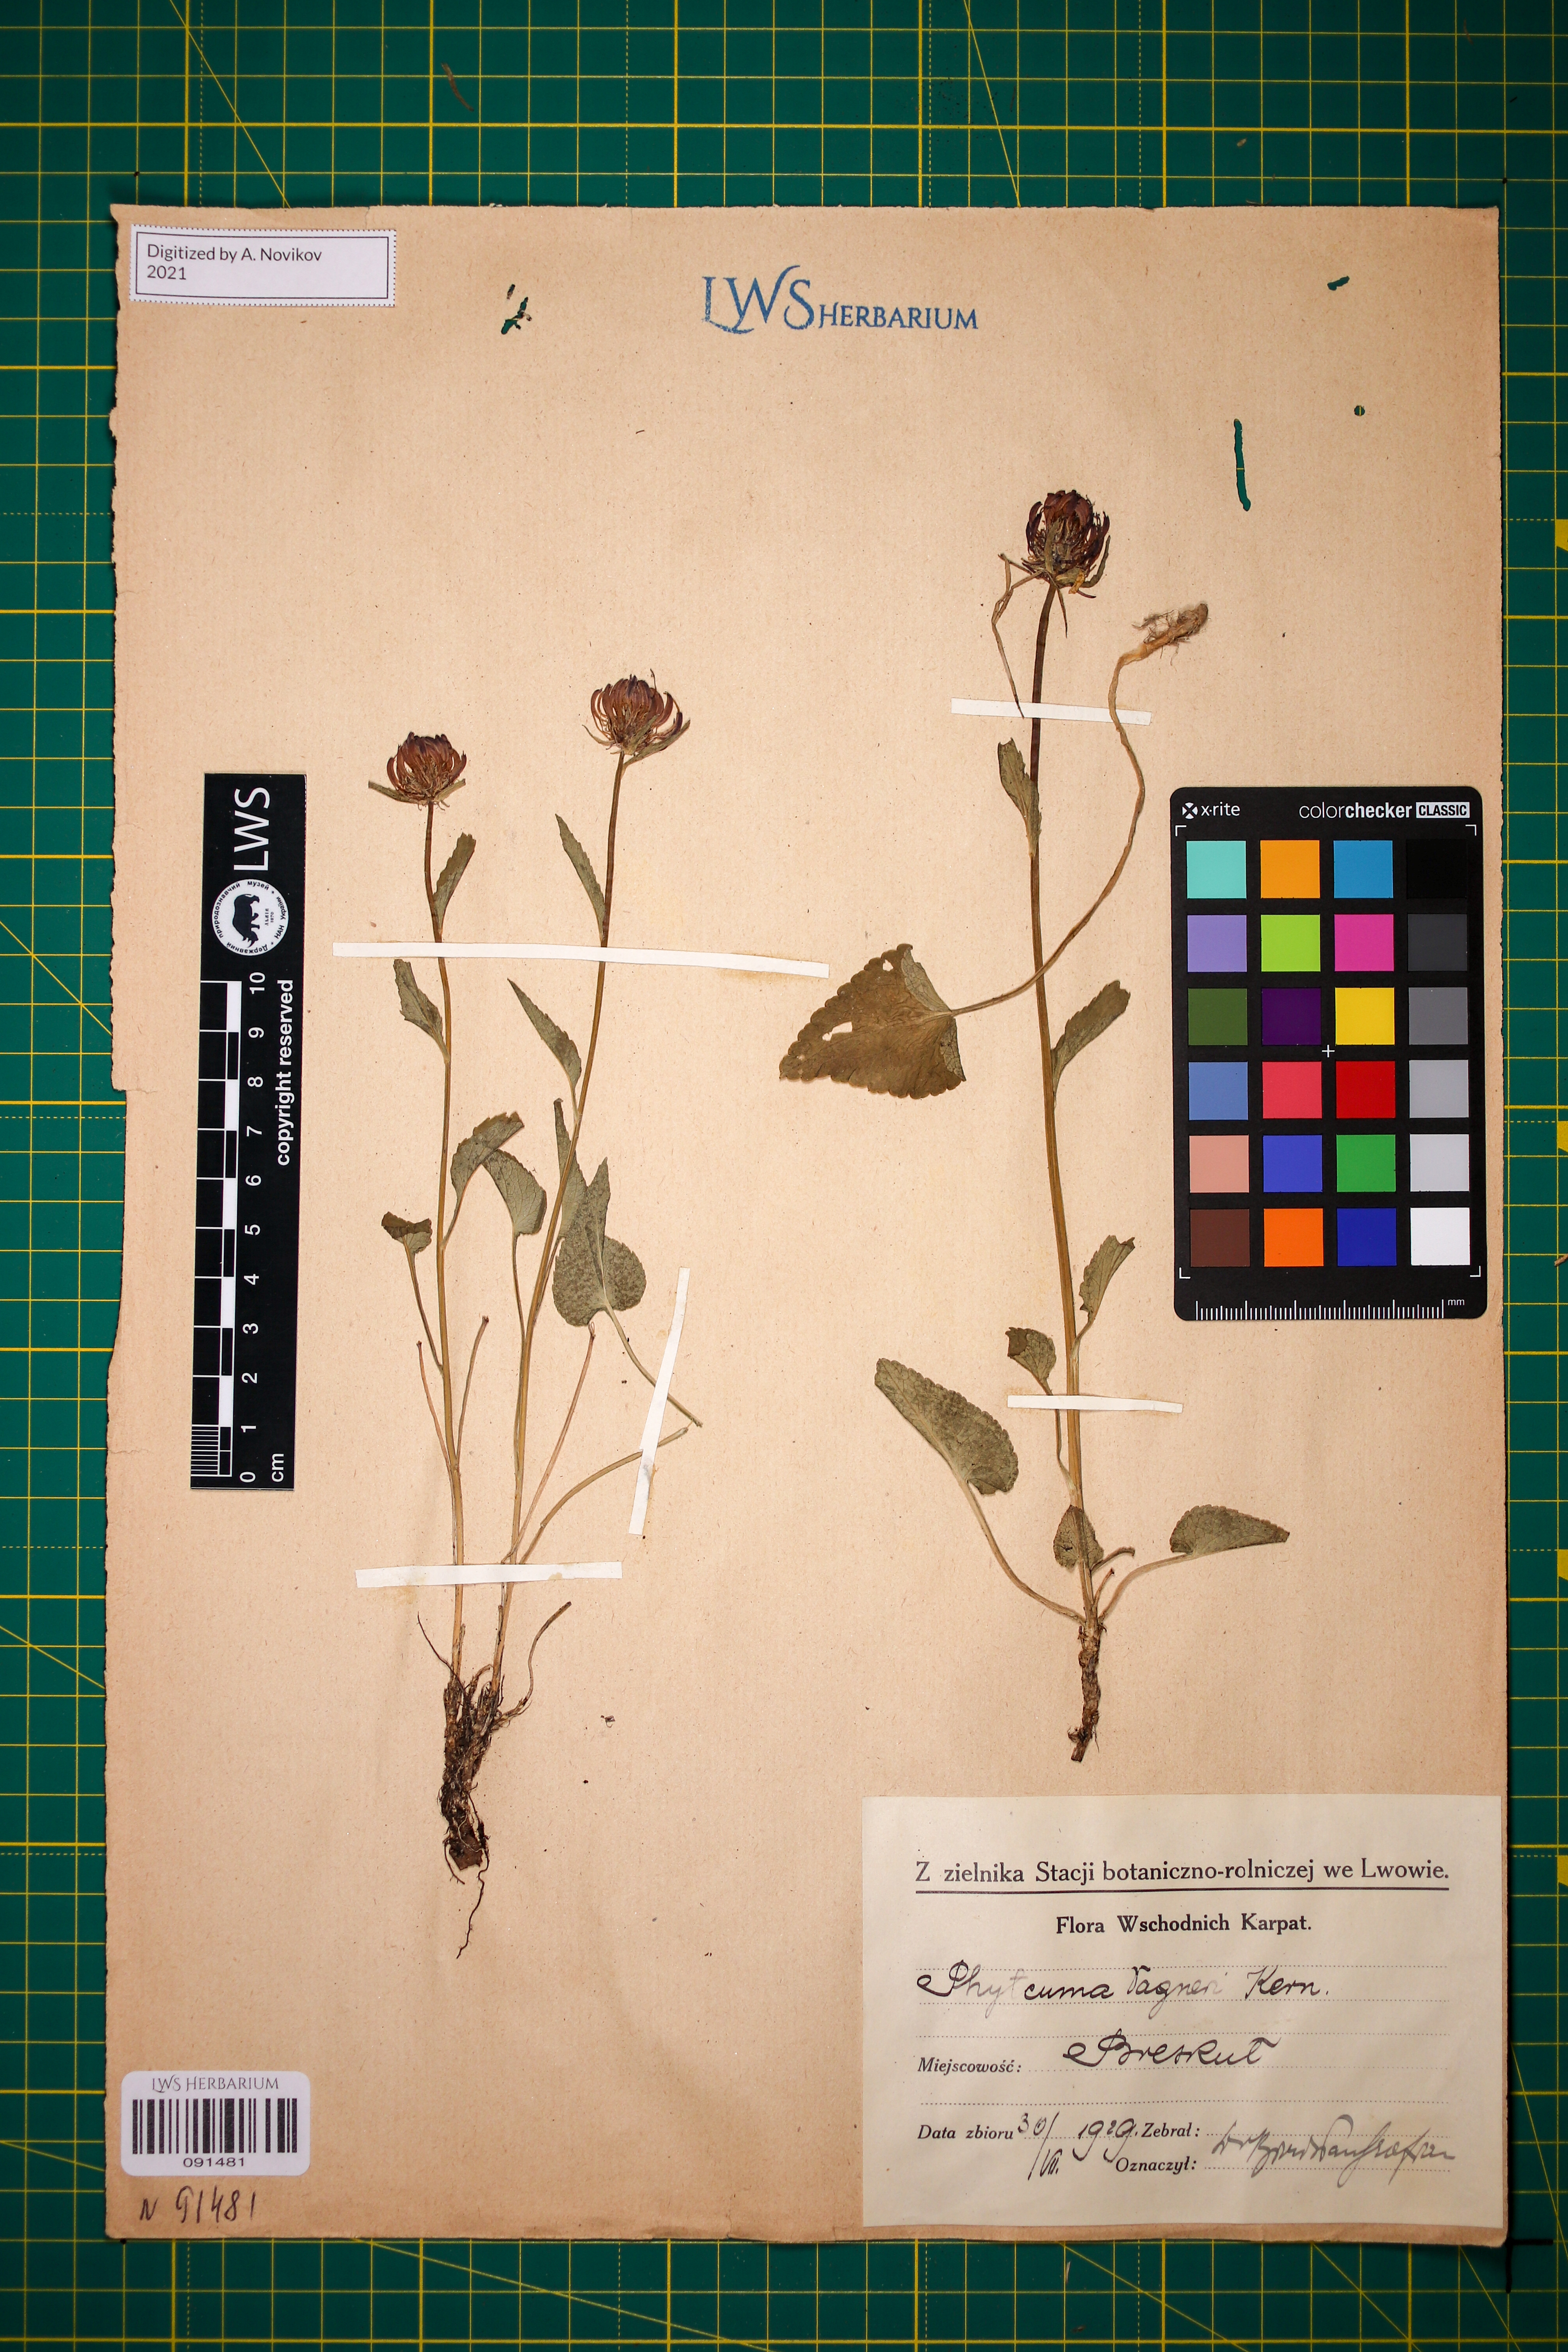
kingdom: Plantae
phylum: Tracheophyta
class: Magnoliopsida
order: Asterales
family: Campanulaceae
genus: Phyteuma
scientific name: Phyteuma vagneri
